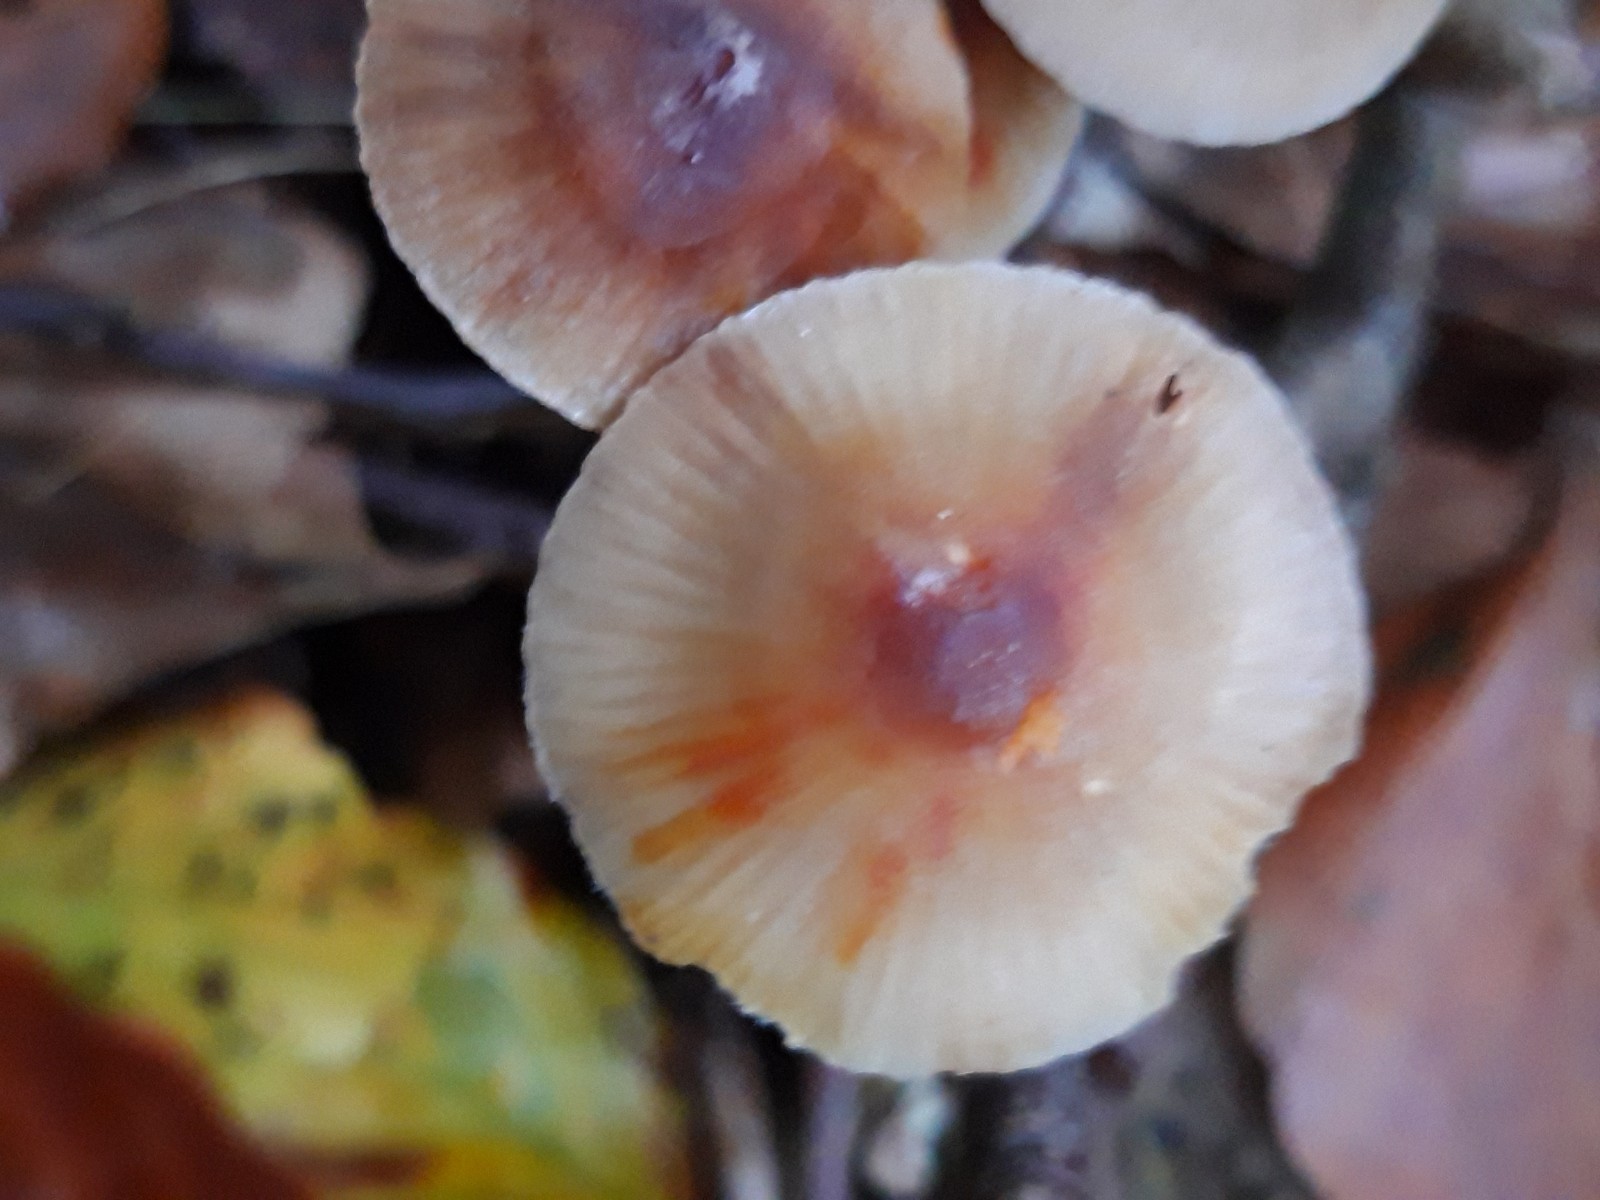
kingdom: Fungi
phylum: Basidiomycota
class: Agaricomycetes
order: Agaricales
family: Mycenaceae
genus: Mycena
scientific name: Mycena crocata
